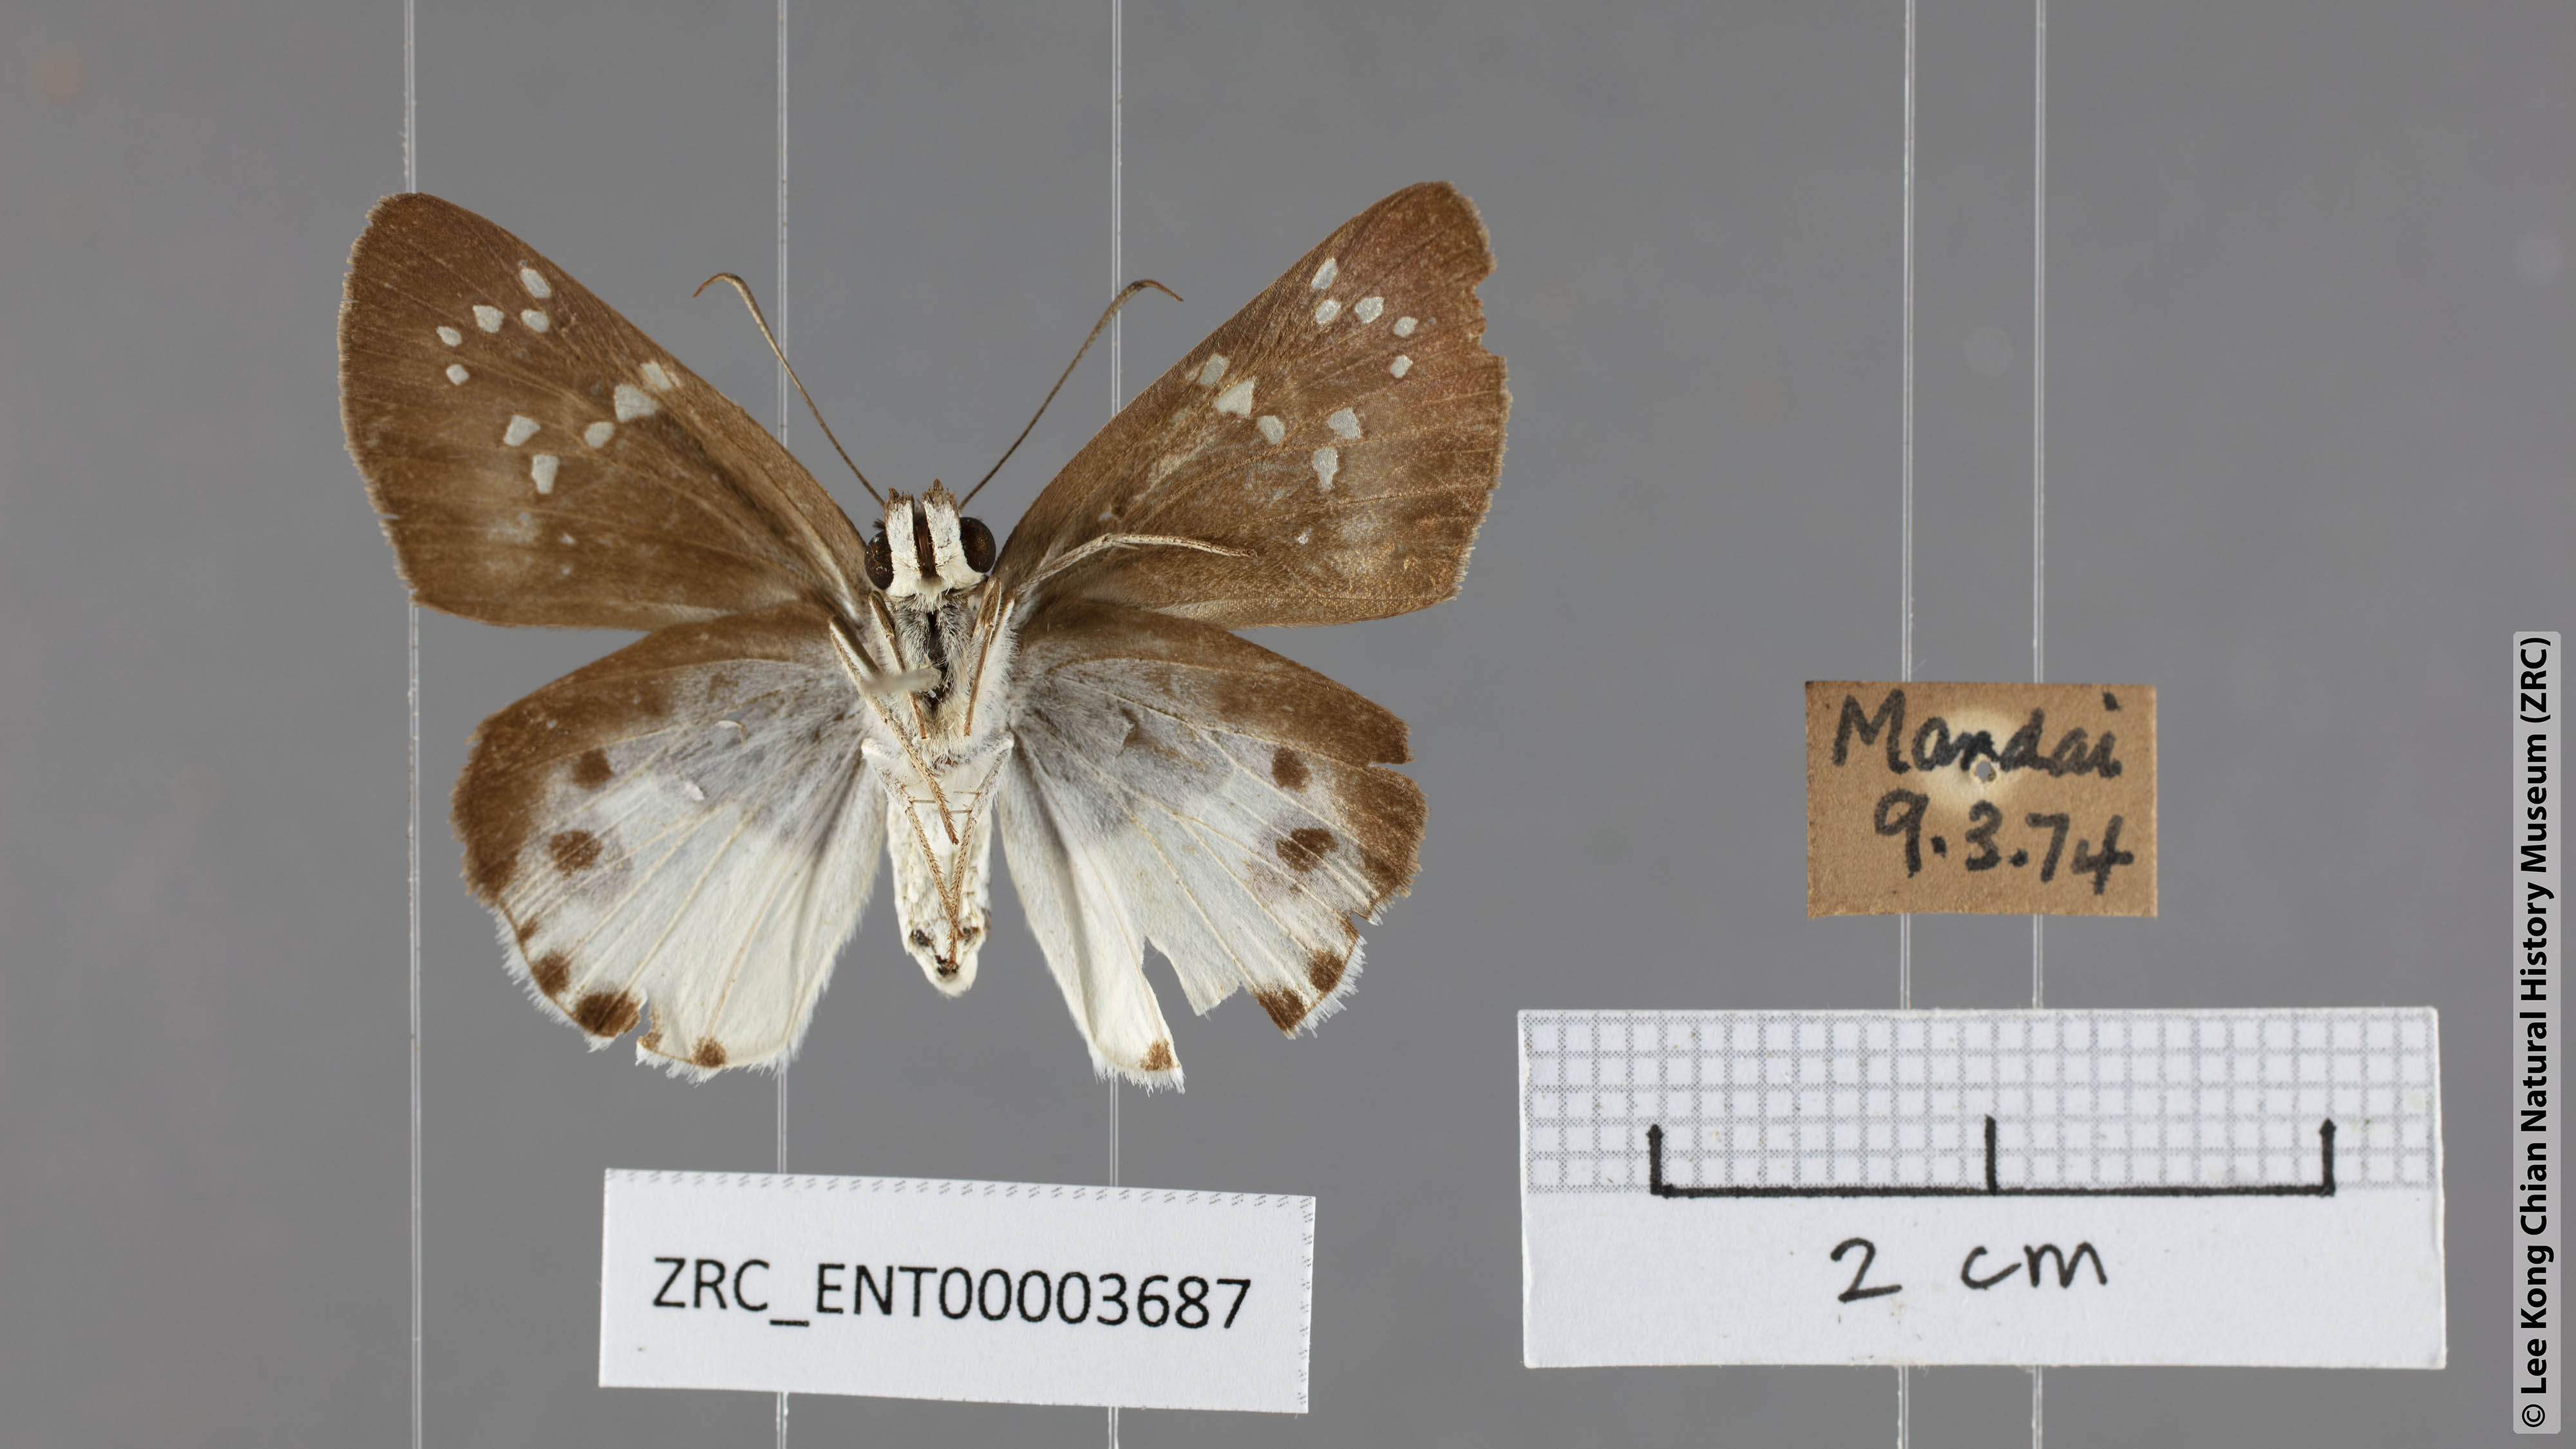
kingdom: Animalia
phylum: Arthropoda
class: Insecta
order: Lepidoptera
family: Hesperiidae
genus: Tagiades
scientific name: Tagiades calligana
